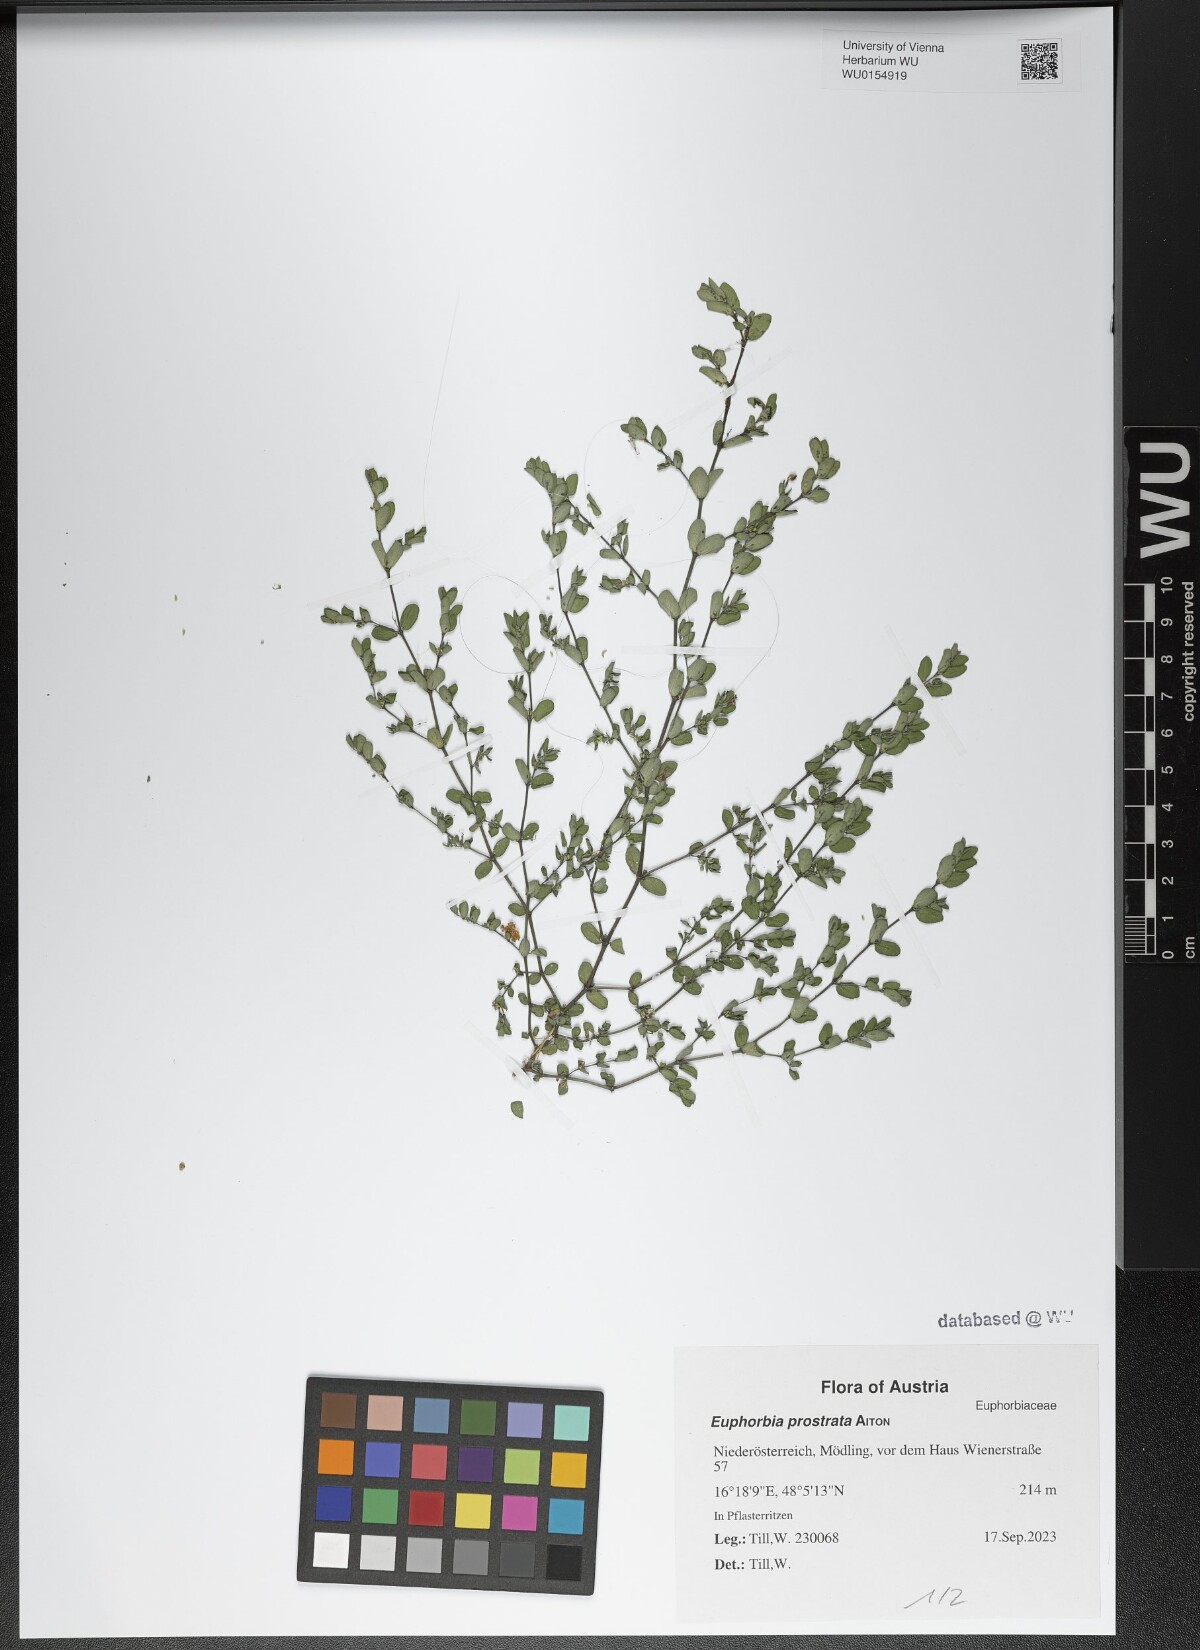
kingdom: Plantae
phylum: Tracheophyta
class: Magnoliopsida
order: Malpighiales
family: Euphorbiaceae
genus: Euphorbia
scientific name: Euphorbia prostrata
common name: Prostrate sandmat
